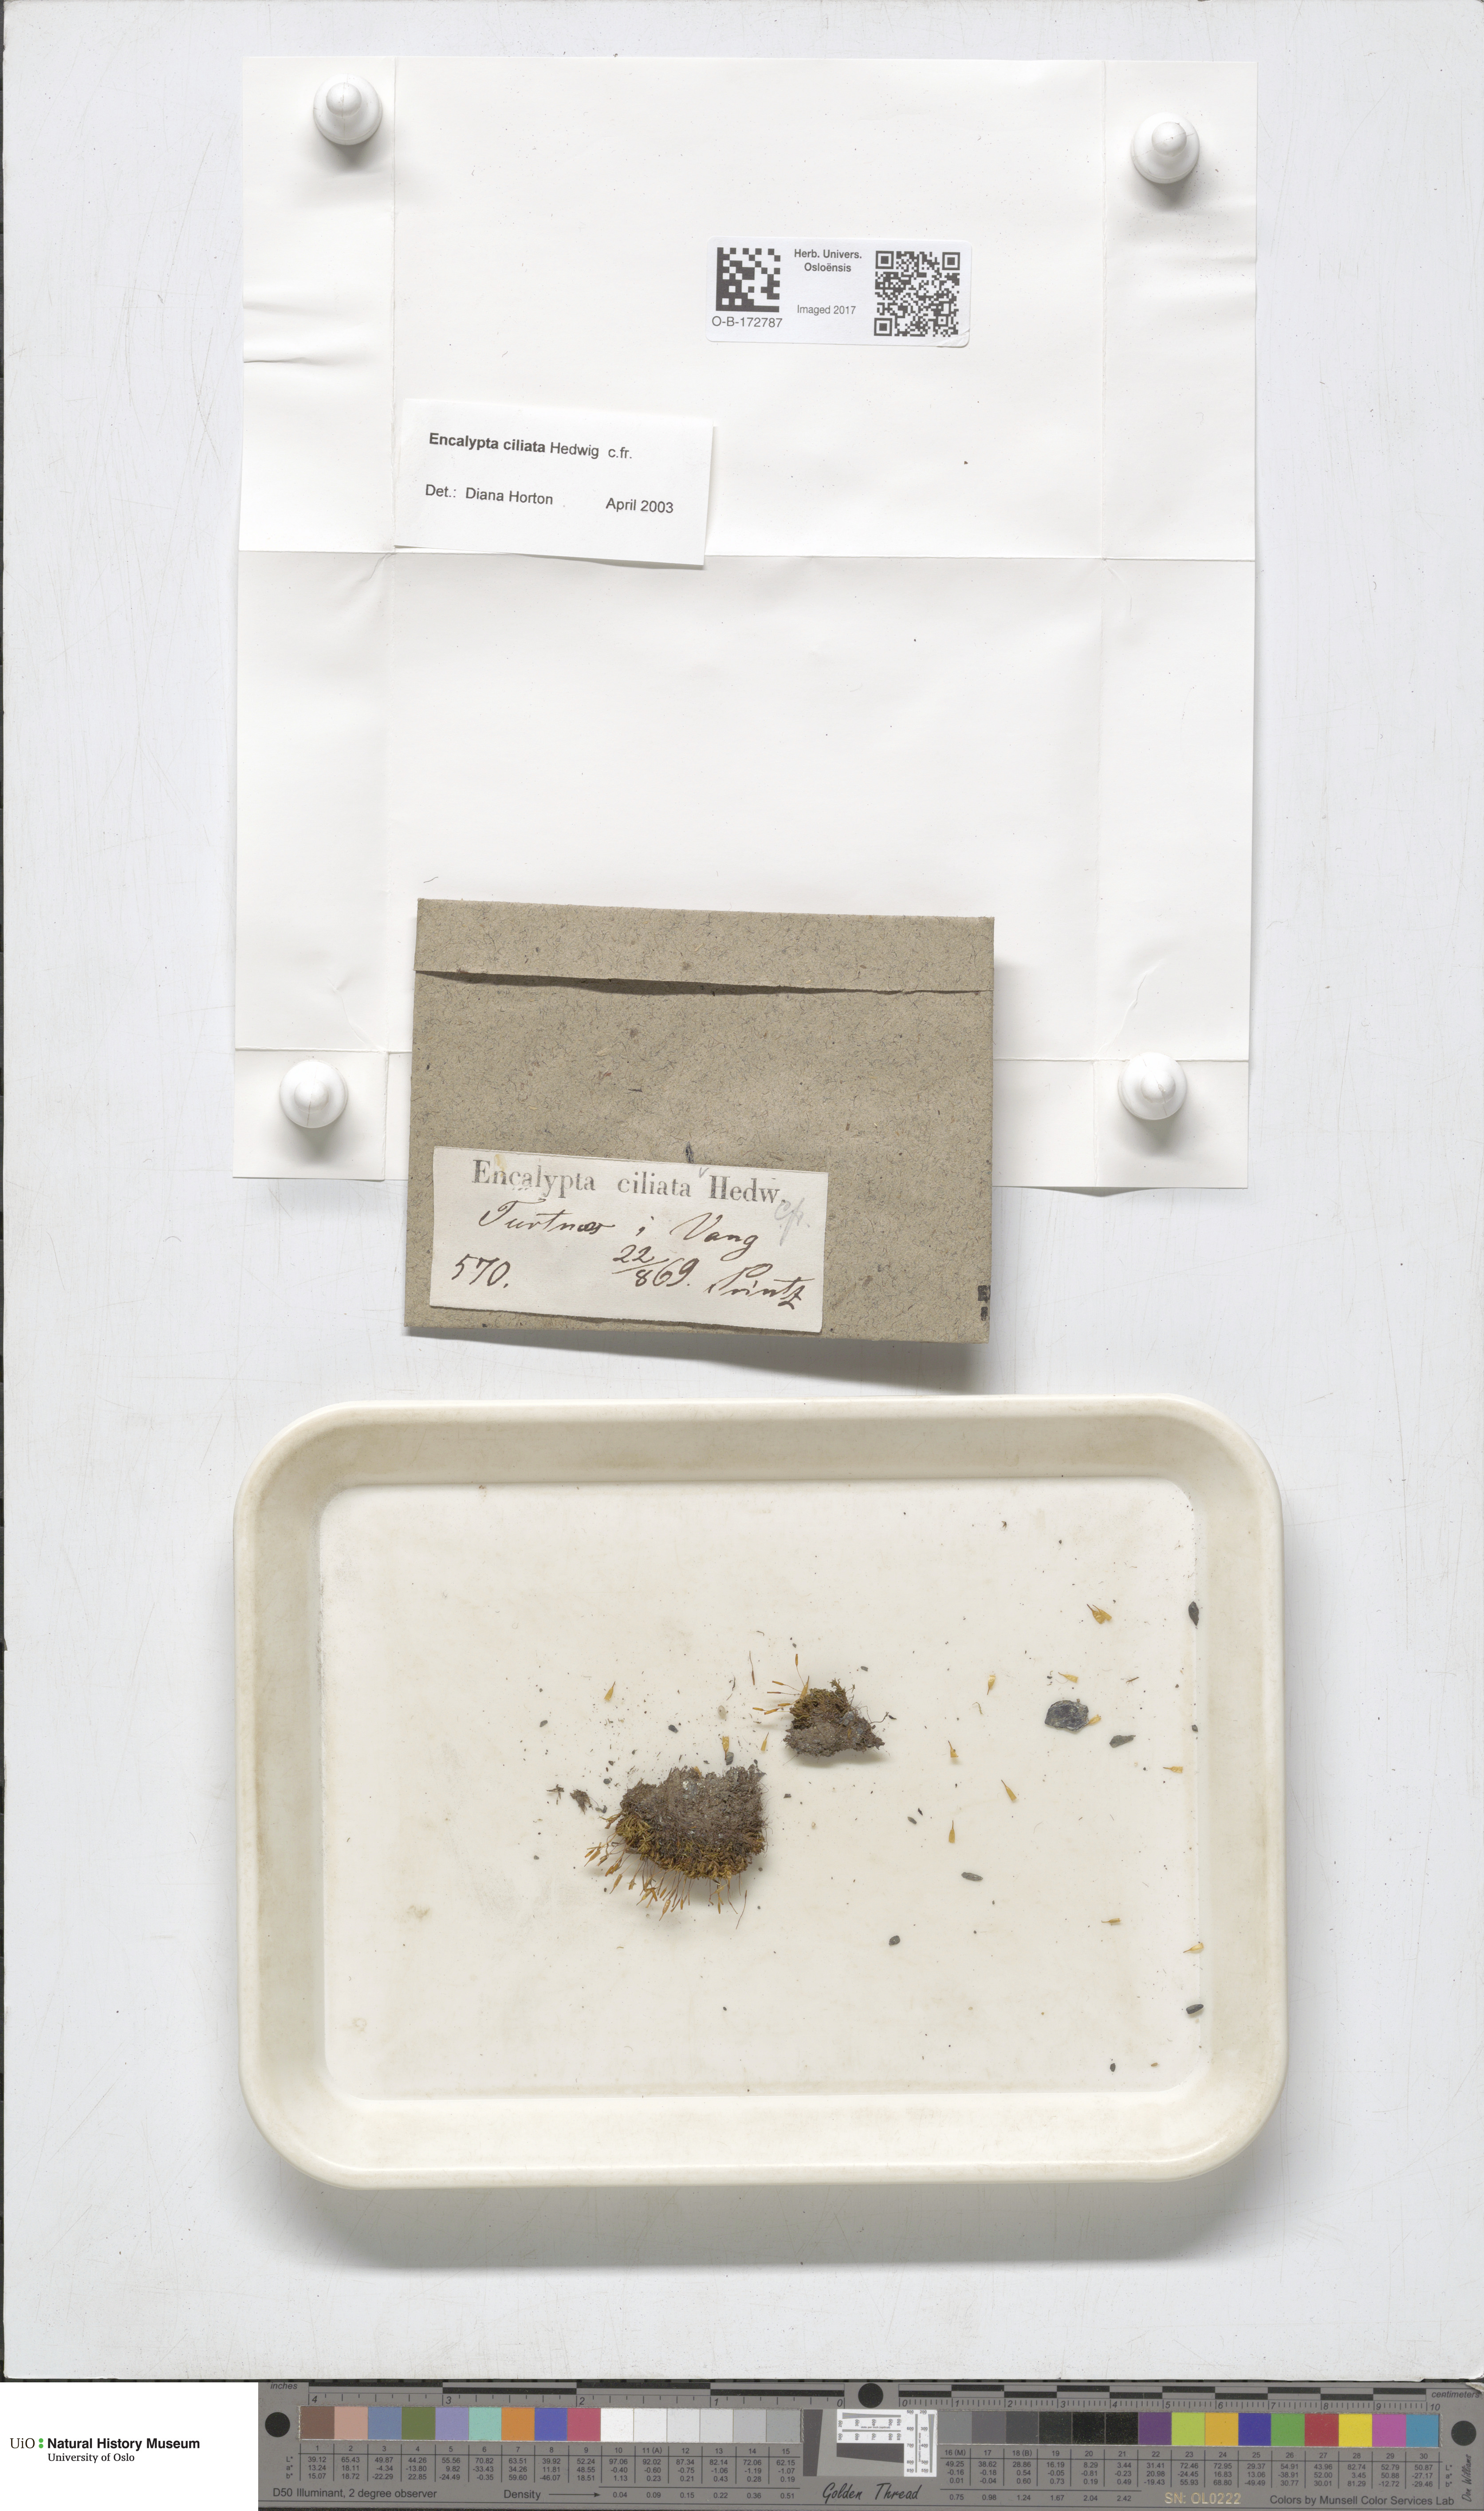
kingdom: Plantae
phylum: Bryophyta
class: Bryopsida
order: Encalyptales
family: Encalyptaceae
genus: Encalypta
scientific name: Encalypta ciliata
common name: Fringed extinguisher-moss
